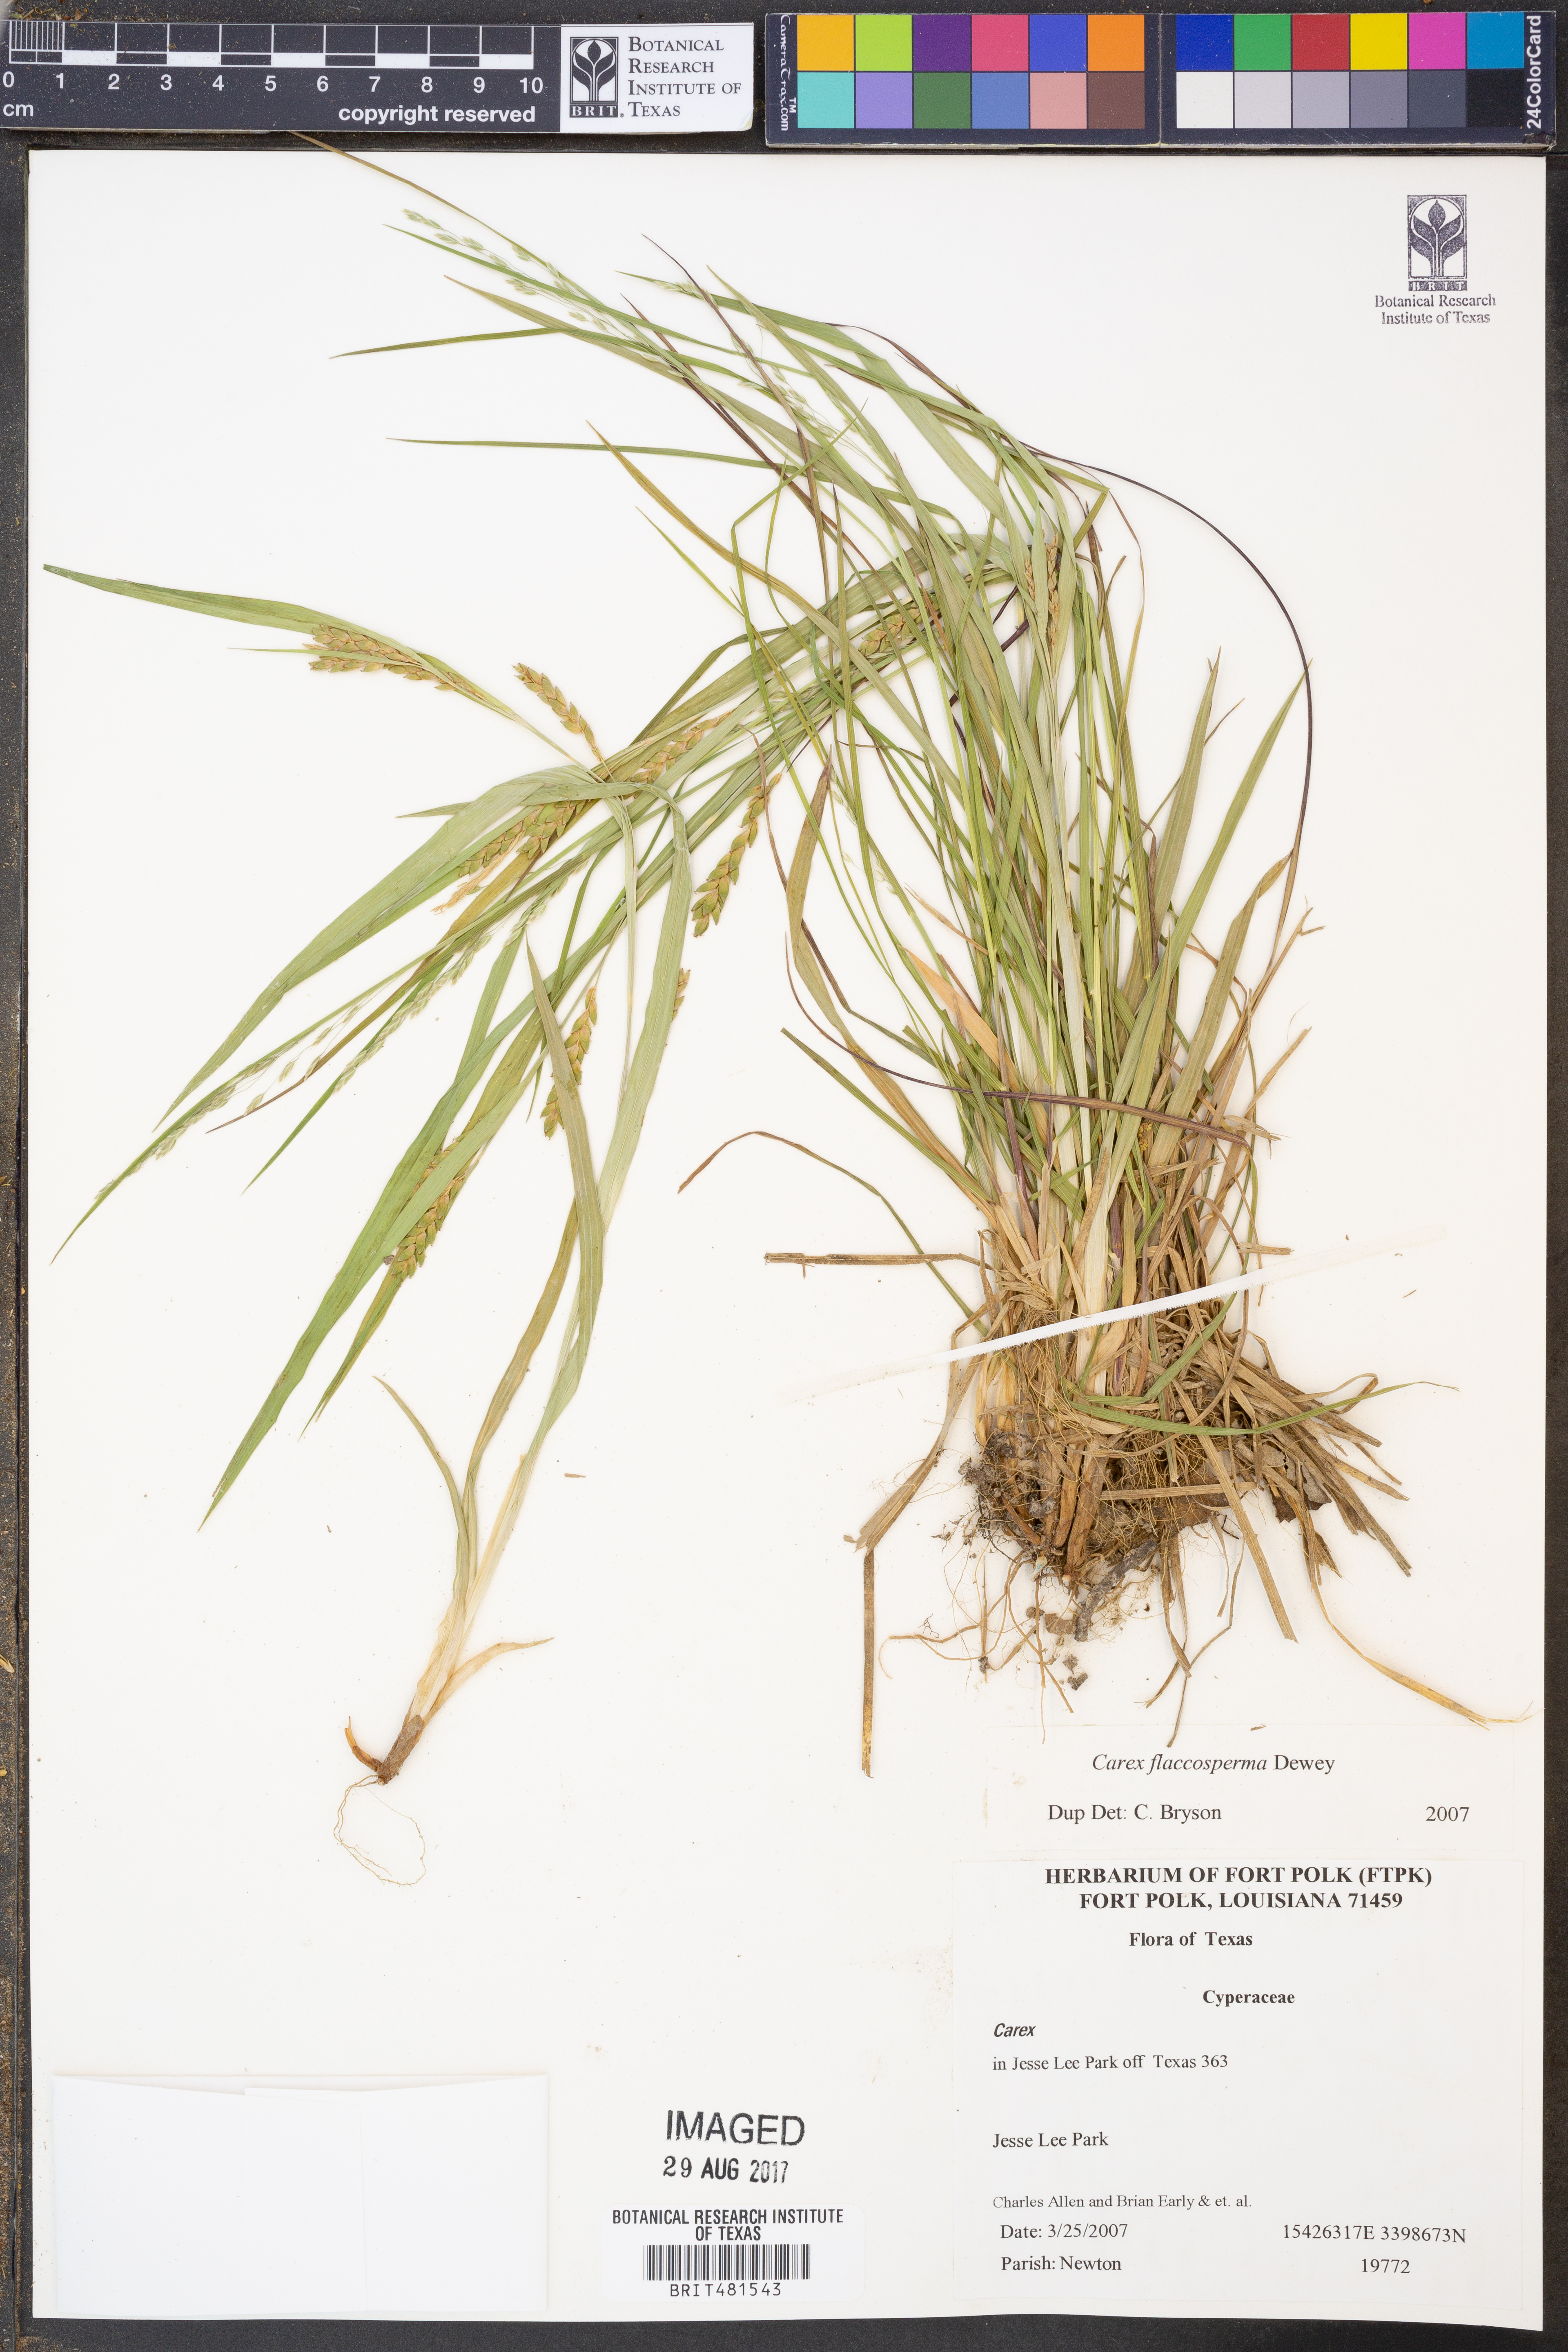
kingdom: Plantae
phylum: Tracheophyta
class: Liliopsida
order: Poales
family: Cyperaceae
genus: Carex
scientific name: Carex flaccosperma
